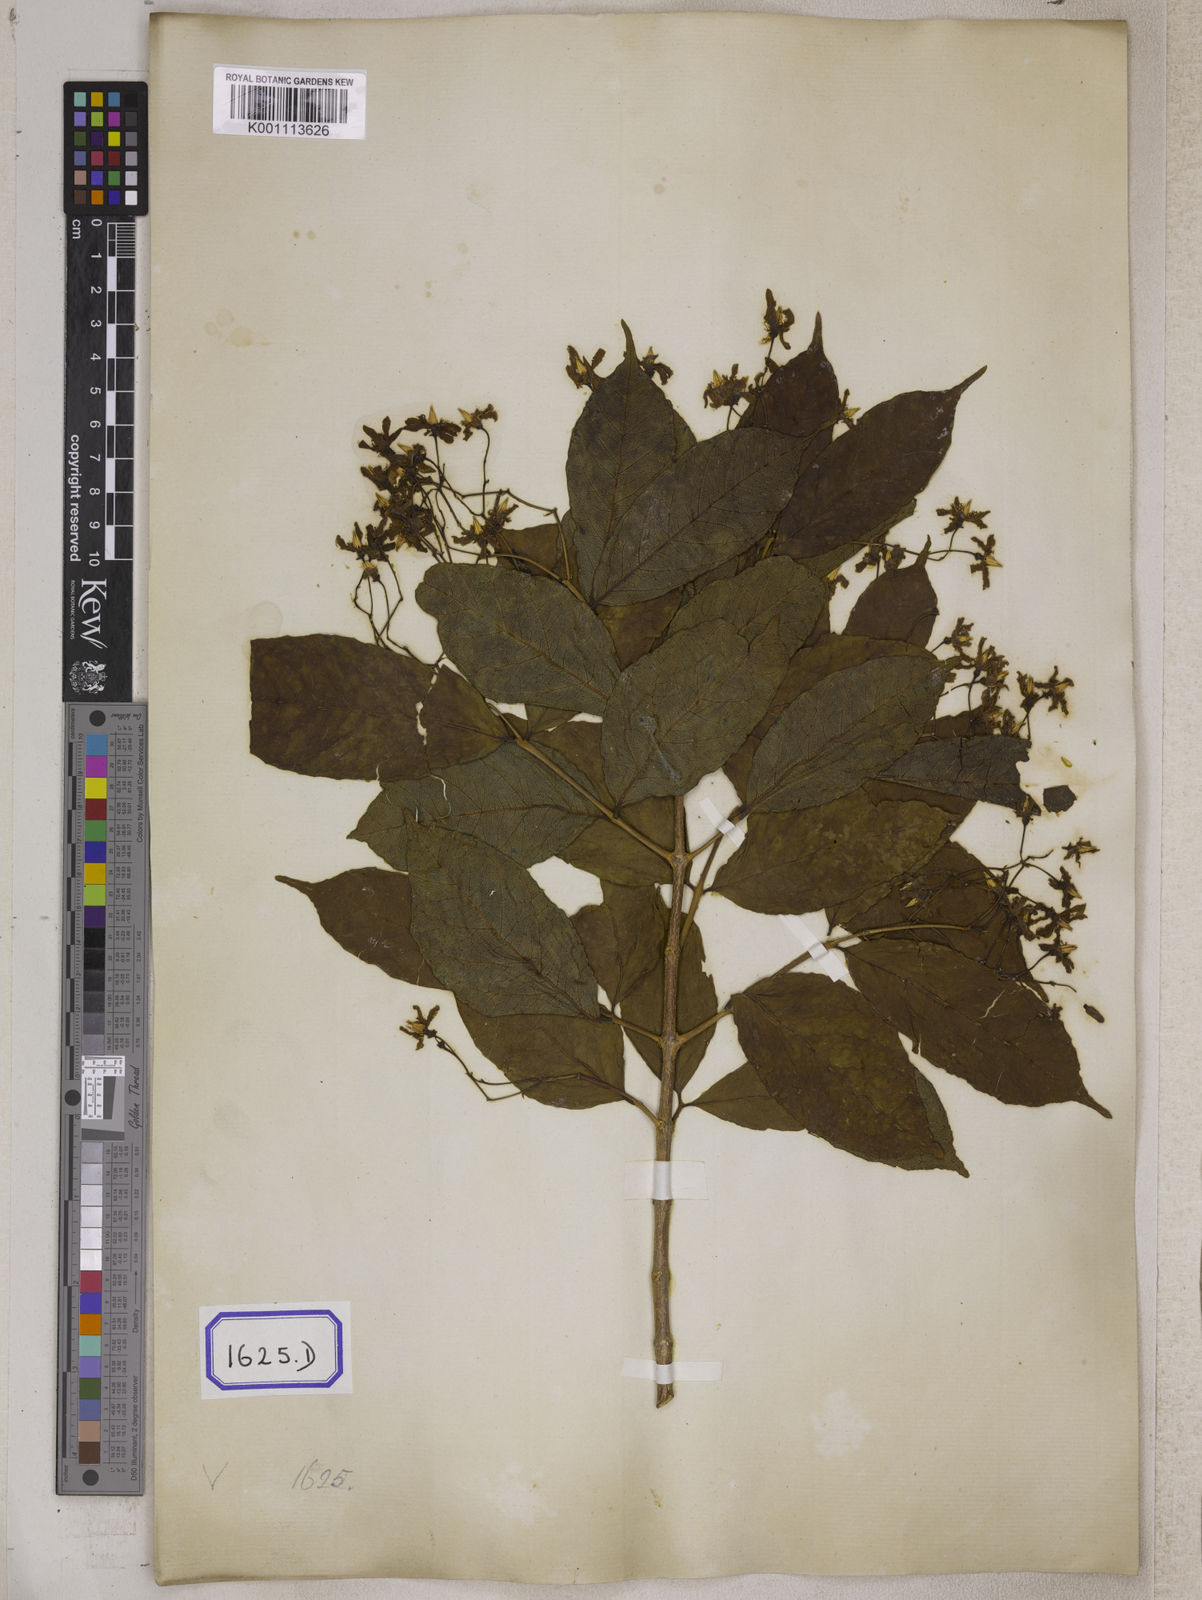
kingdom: Plantae
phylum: Tracheophyta
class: Magnoliopsida
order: Gentianales
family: Apocynaceae
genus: Wrightia
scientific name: Wrightia tinctoria
